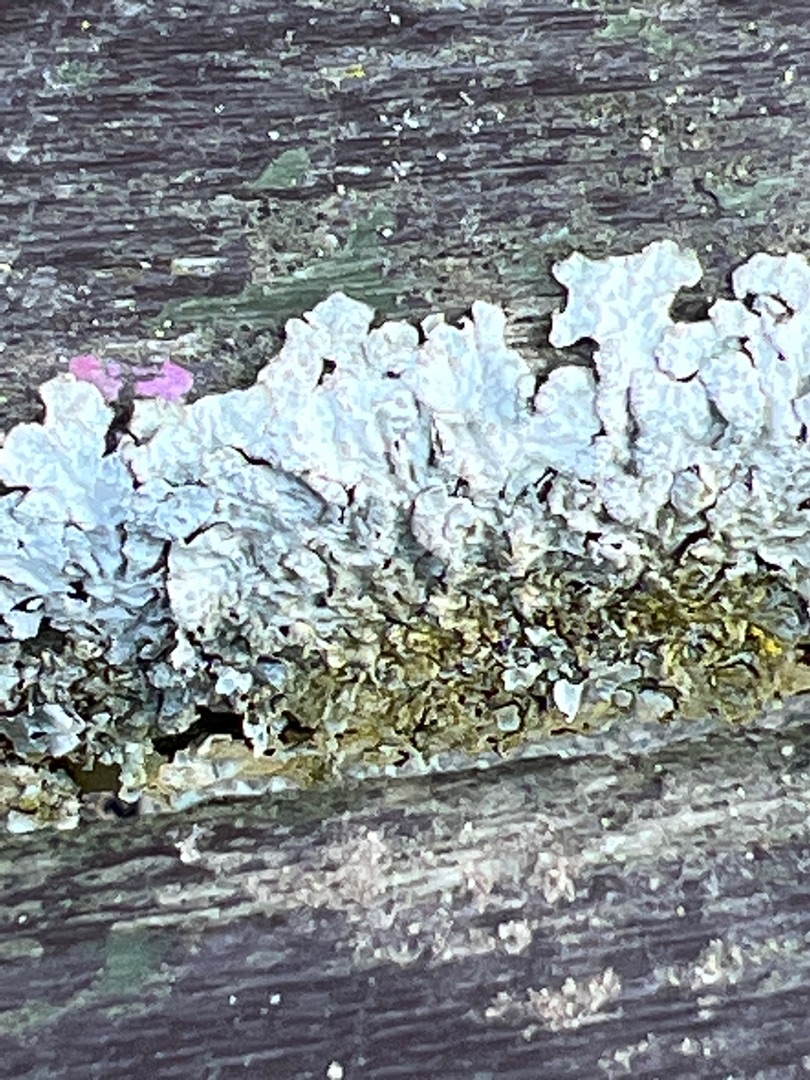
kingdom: Fungi
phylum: Ascomycota
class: Lecanoromycetes
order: Lecanorales
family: Parmeliaceae
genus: Parmelia
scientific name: Parmelia sulcata
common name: Rynket skållav
